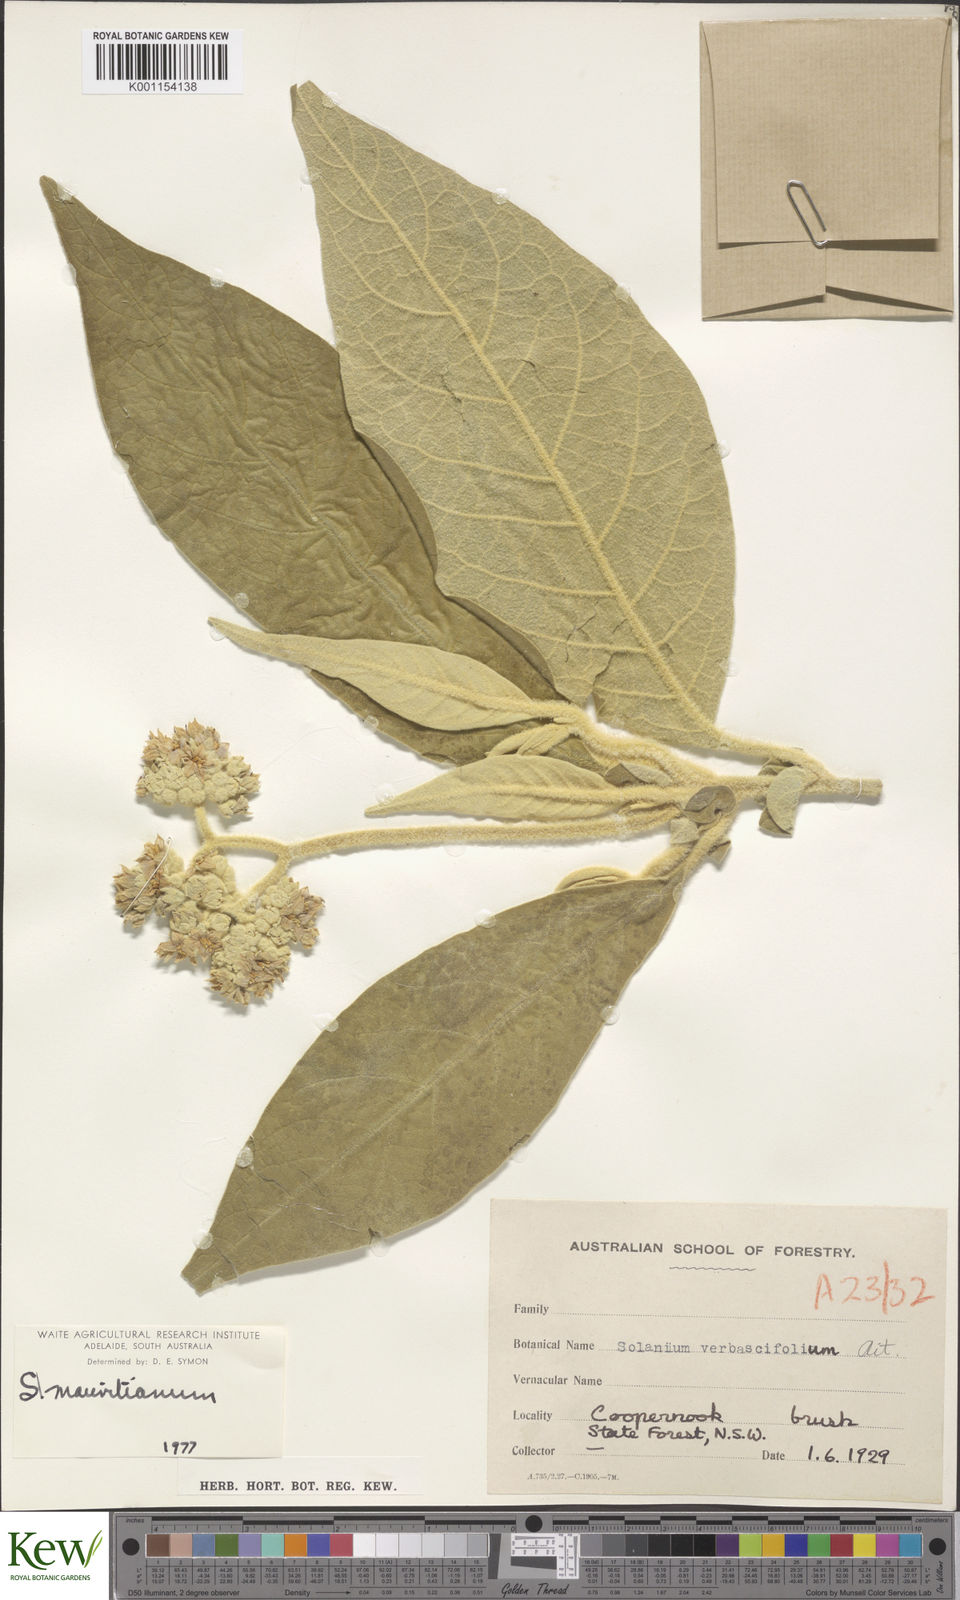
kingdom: Plantae
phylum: Tracheophyta
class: Magnoliopsida
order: Solanales
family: Solanaceae
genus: Solanum
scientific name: Solanum mauritianum
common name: Earleaf nightshade
